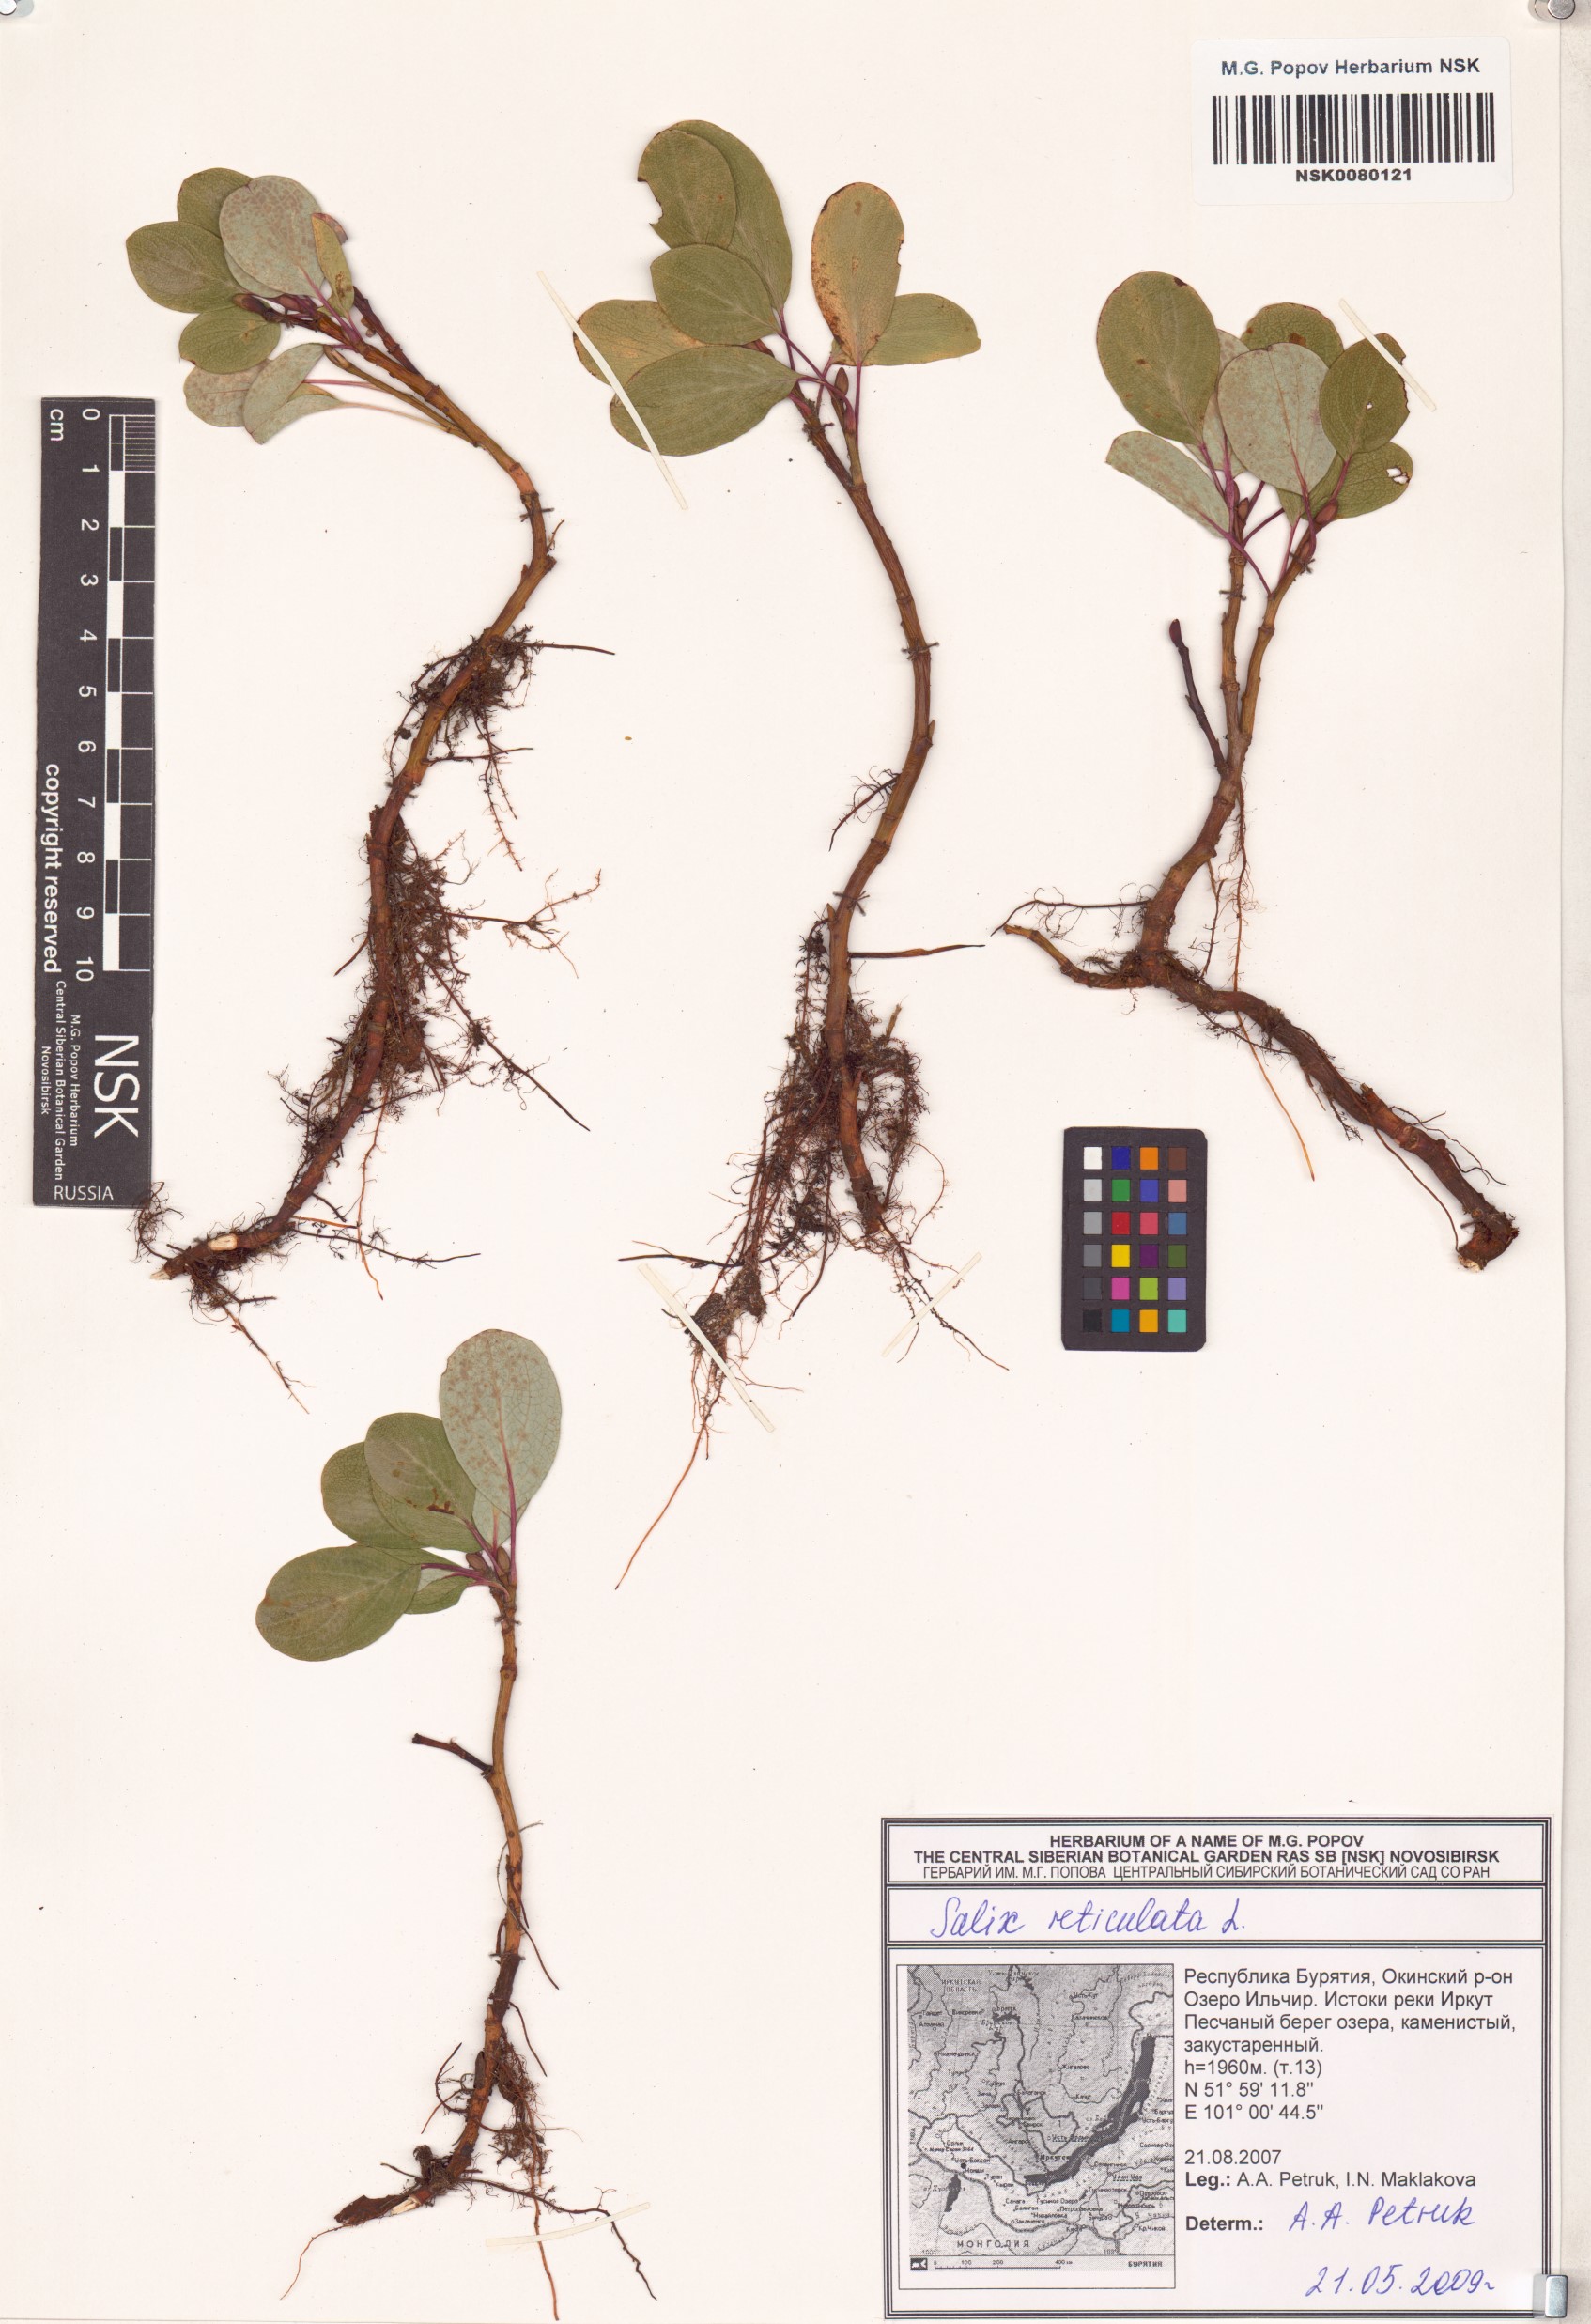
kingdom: Plantae
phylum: Tracheophyta
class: Magnoliopsida
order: Malpighiales
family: Salicaceae
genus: Salix
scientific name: Salix reticulata
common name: Net-leaved willow
